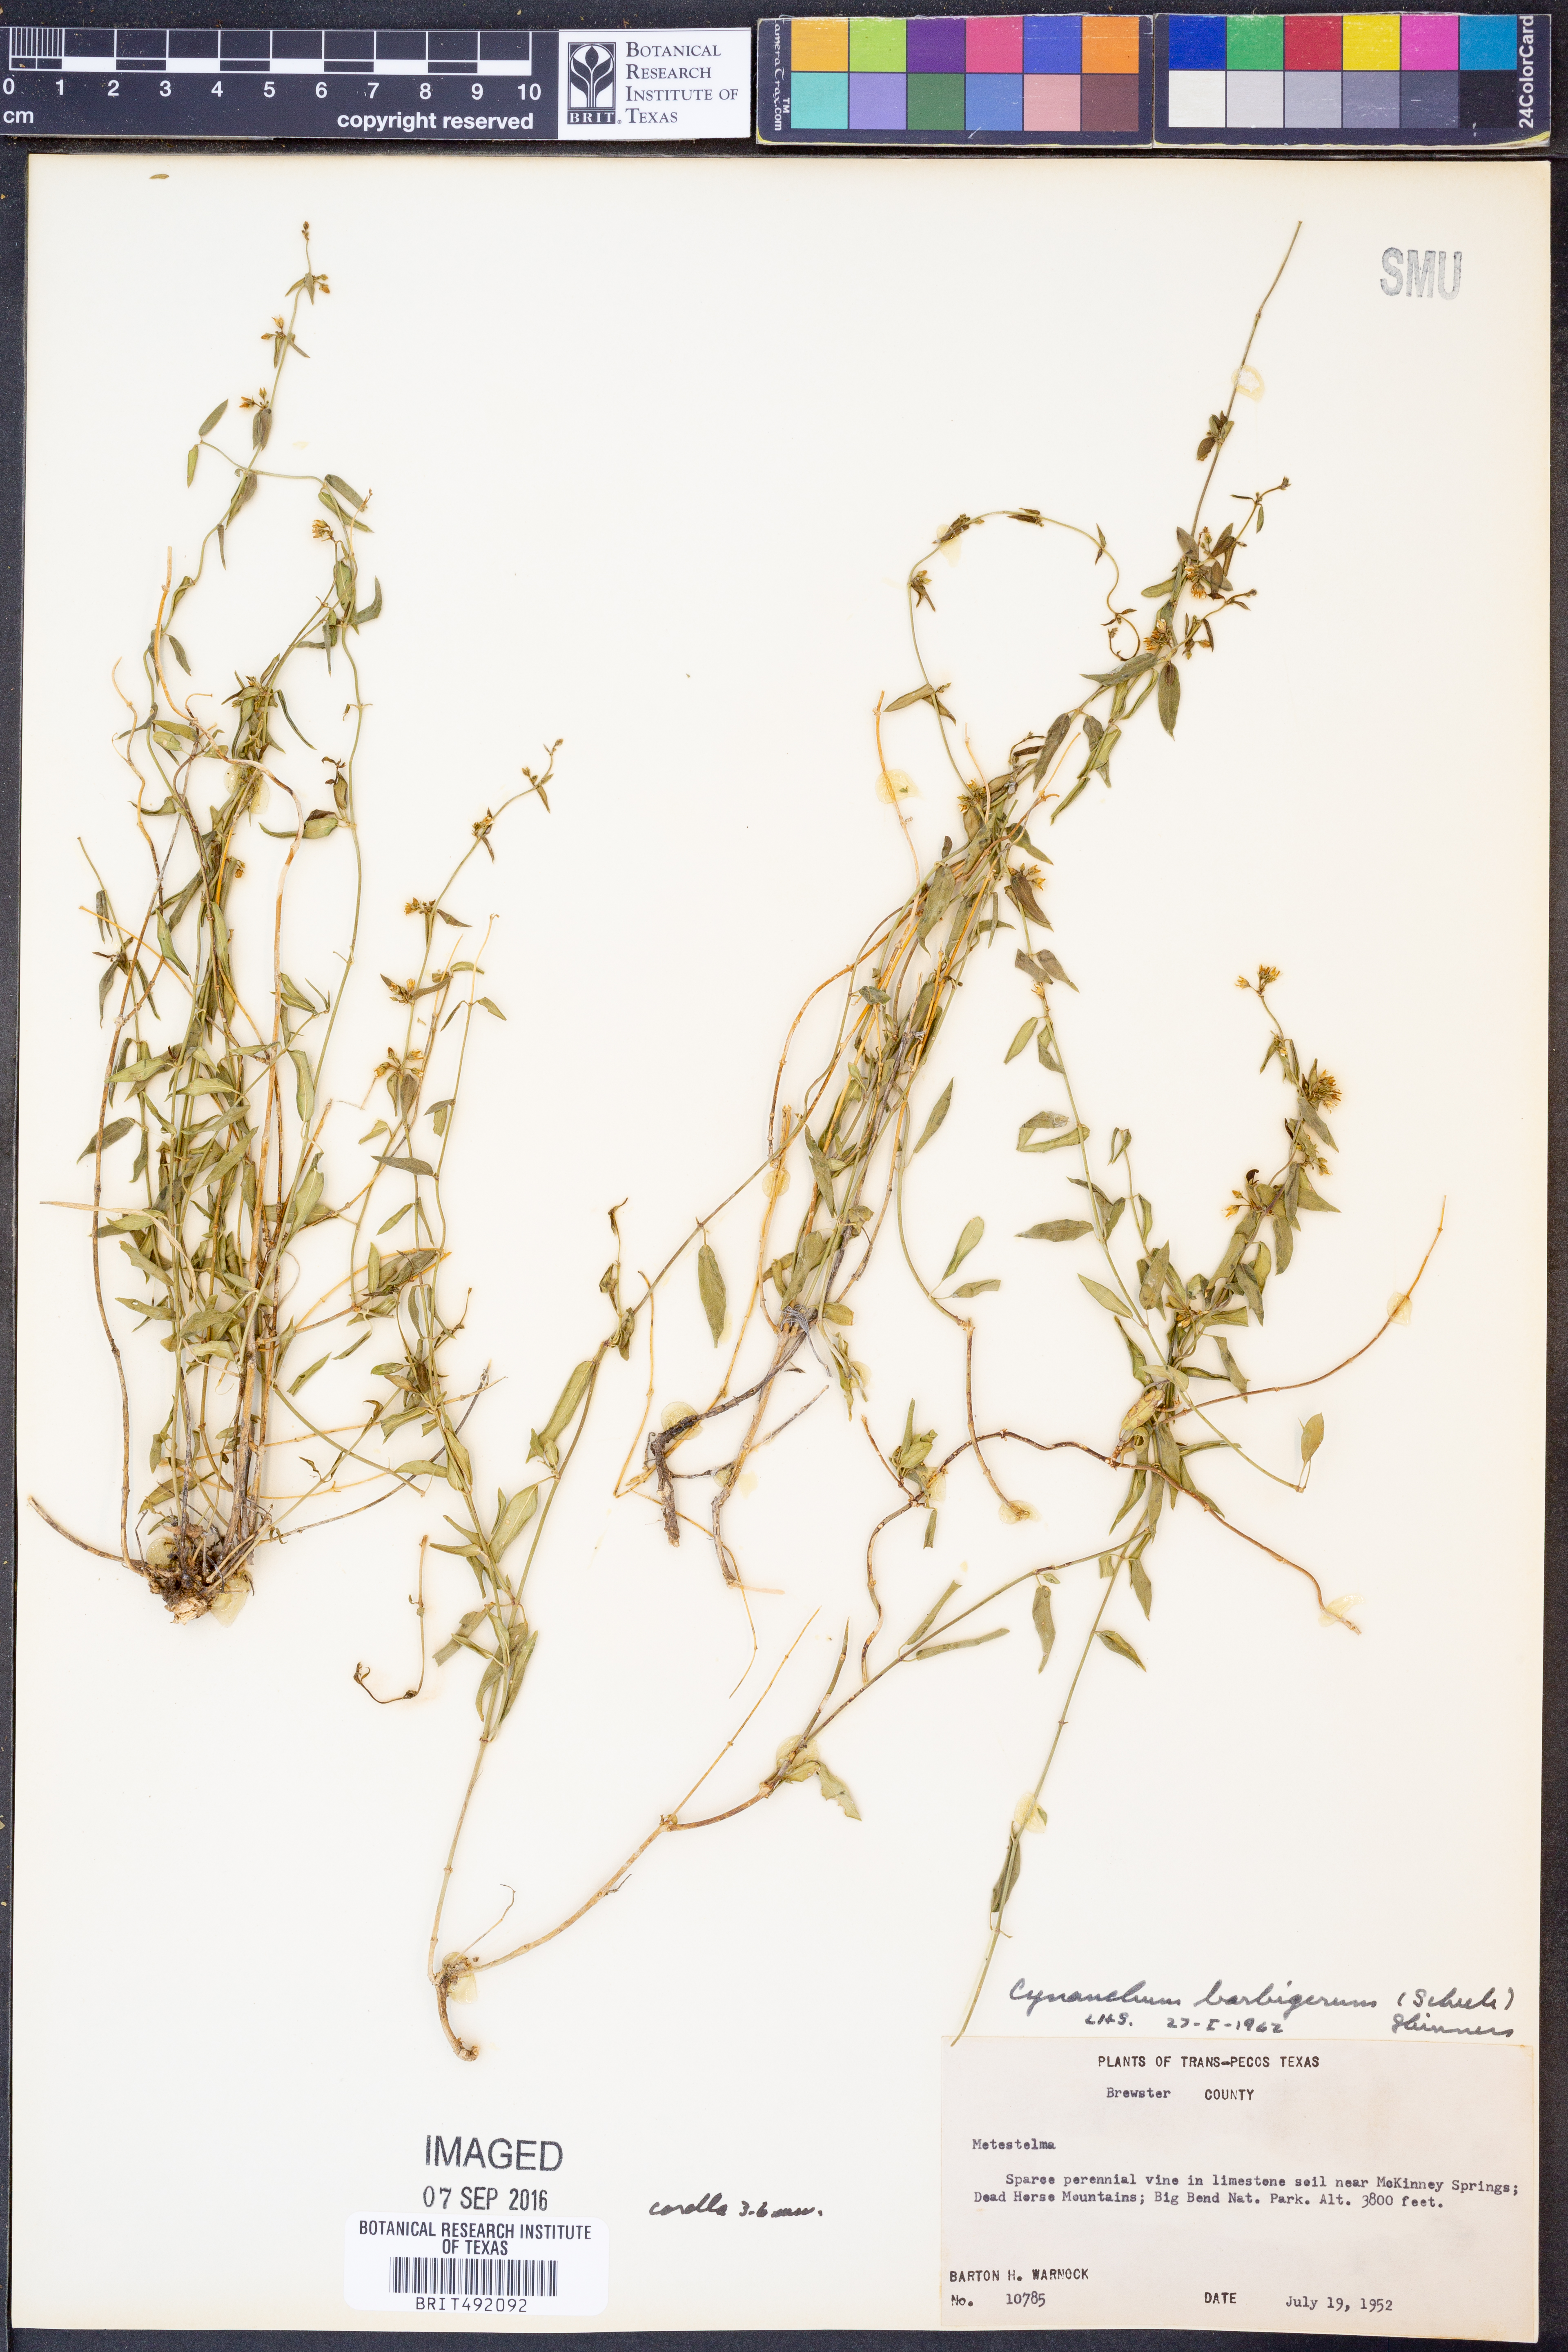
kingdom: Plantae
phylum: Tracheophyta
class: Magnoliopsida
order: Gentianales
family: Apocynaceae
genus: Metastelma
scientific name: Metastelma barbigerum
